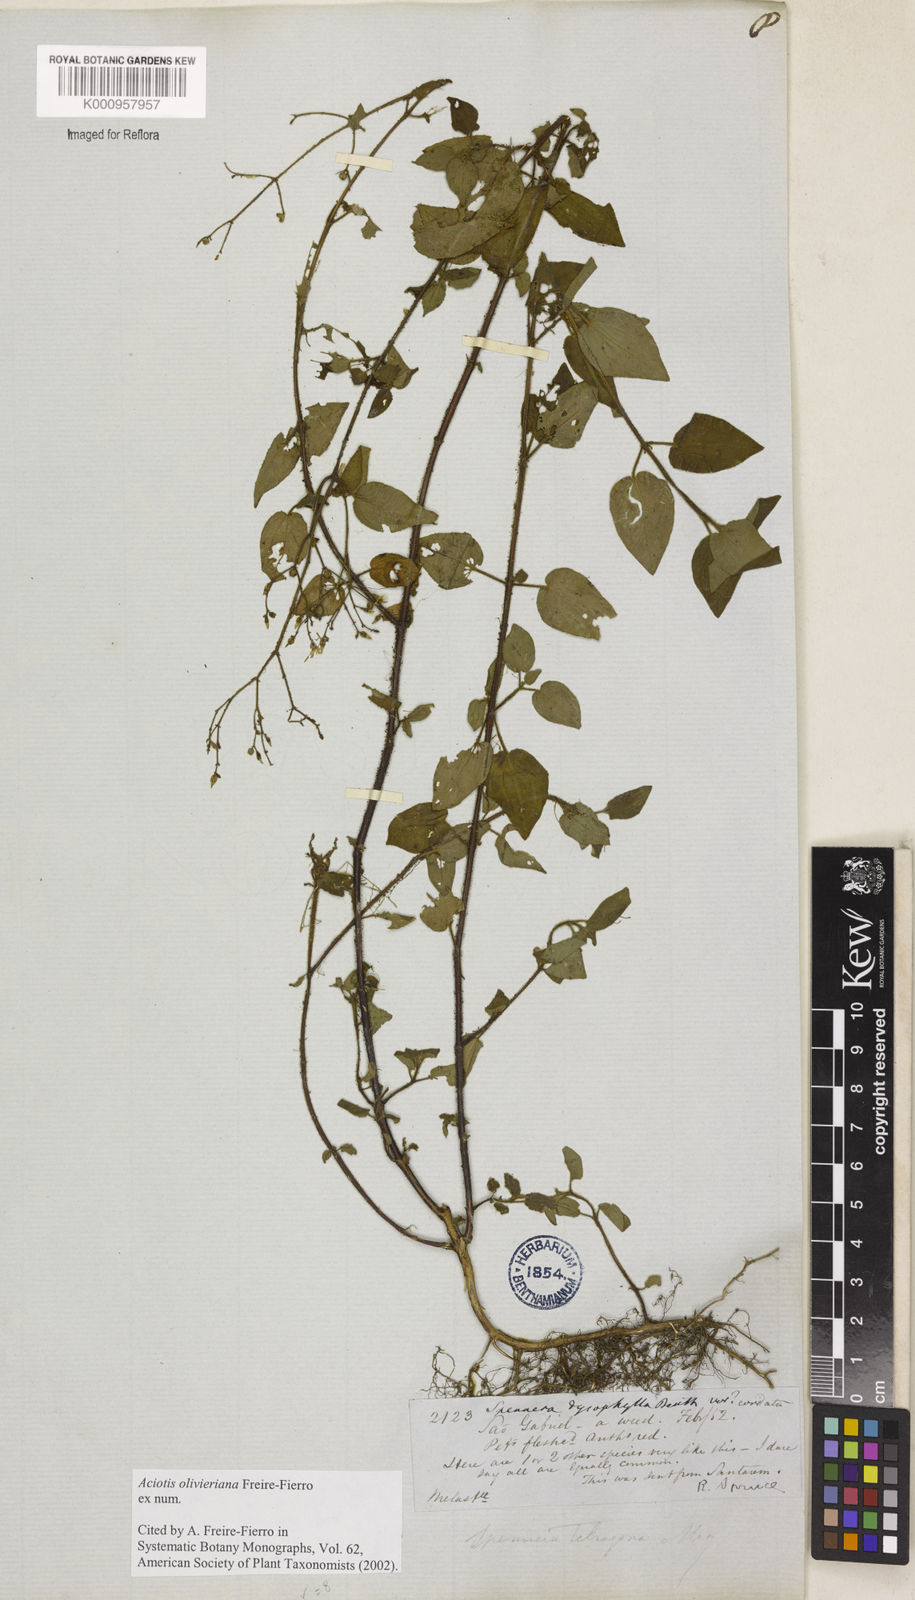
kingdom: Plantae
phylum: Tracheophyta
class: Magnoliopsida
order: Myrtales
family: Melastomataceae
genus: Aciotis
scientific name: Aciotis olivieriana
